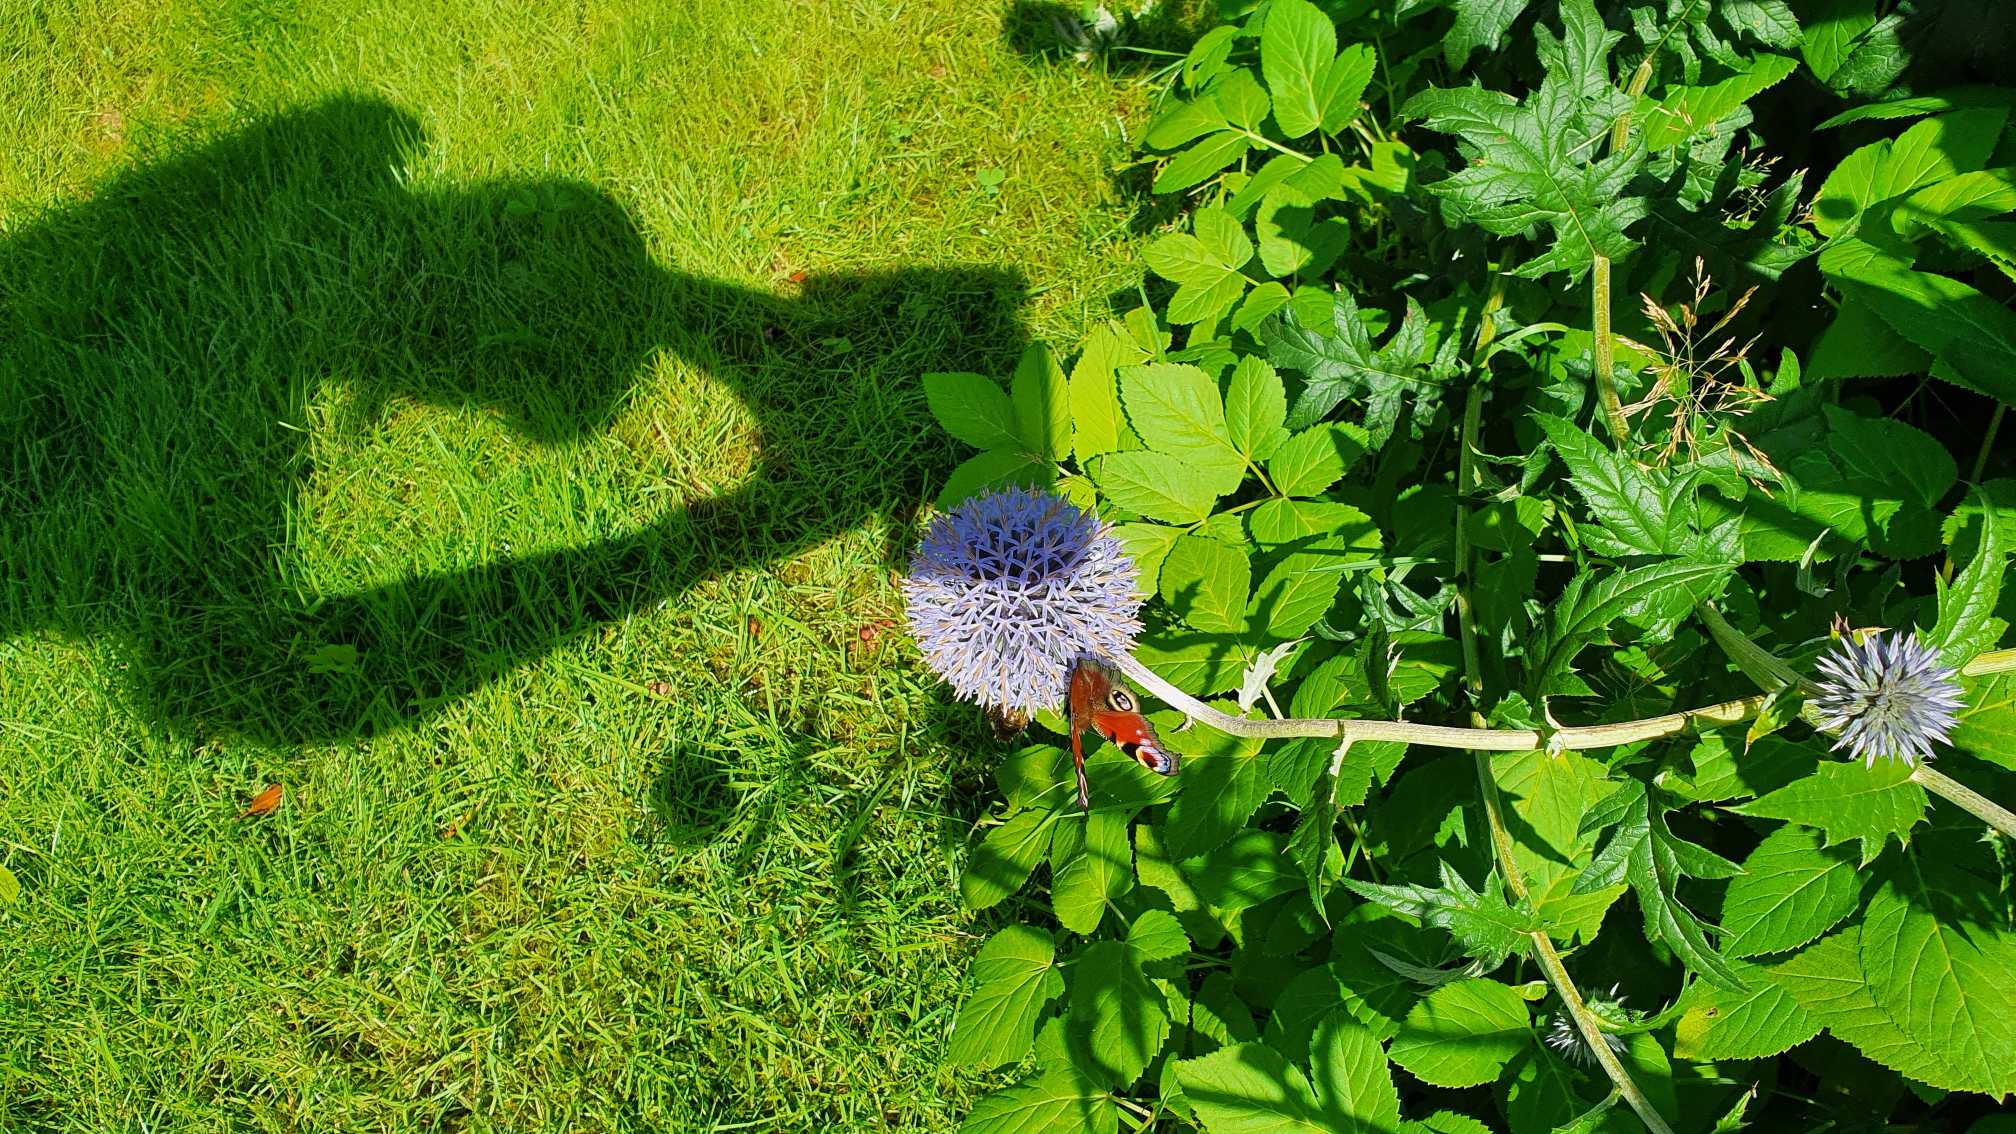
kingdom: Animalia
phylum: Arthropoda
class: Insecta
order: Lepidoptera
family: Nymphalidae
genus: Aglais
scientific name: Aglais io
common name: Dagpåfugleøje
